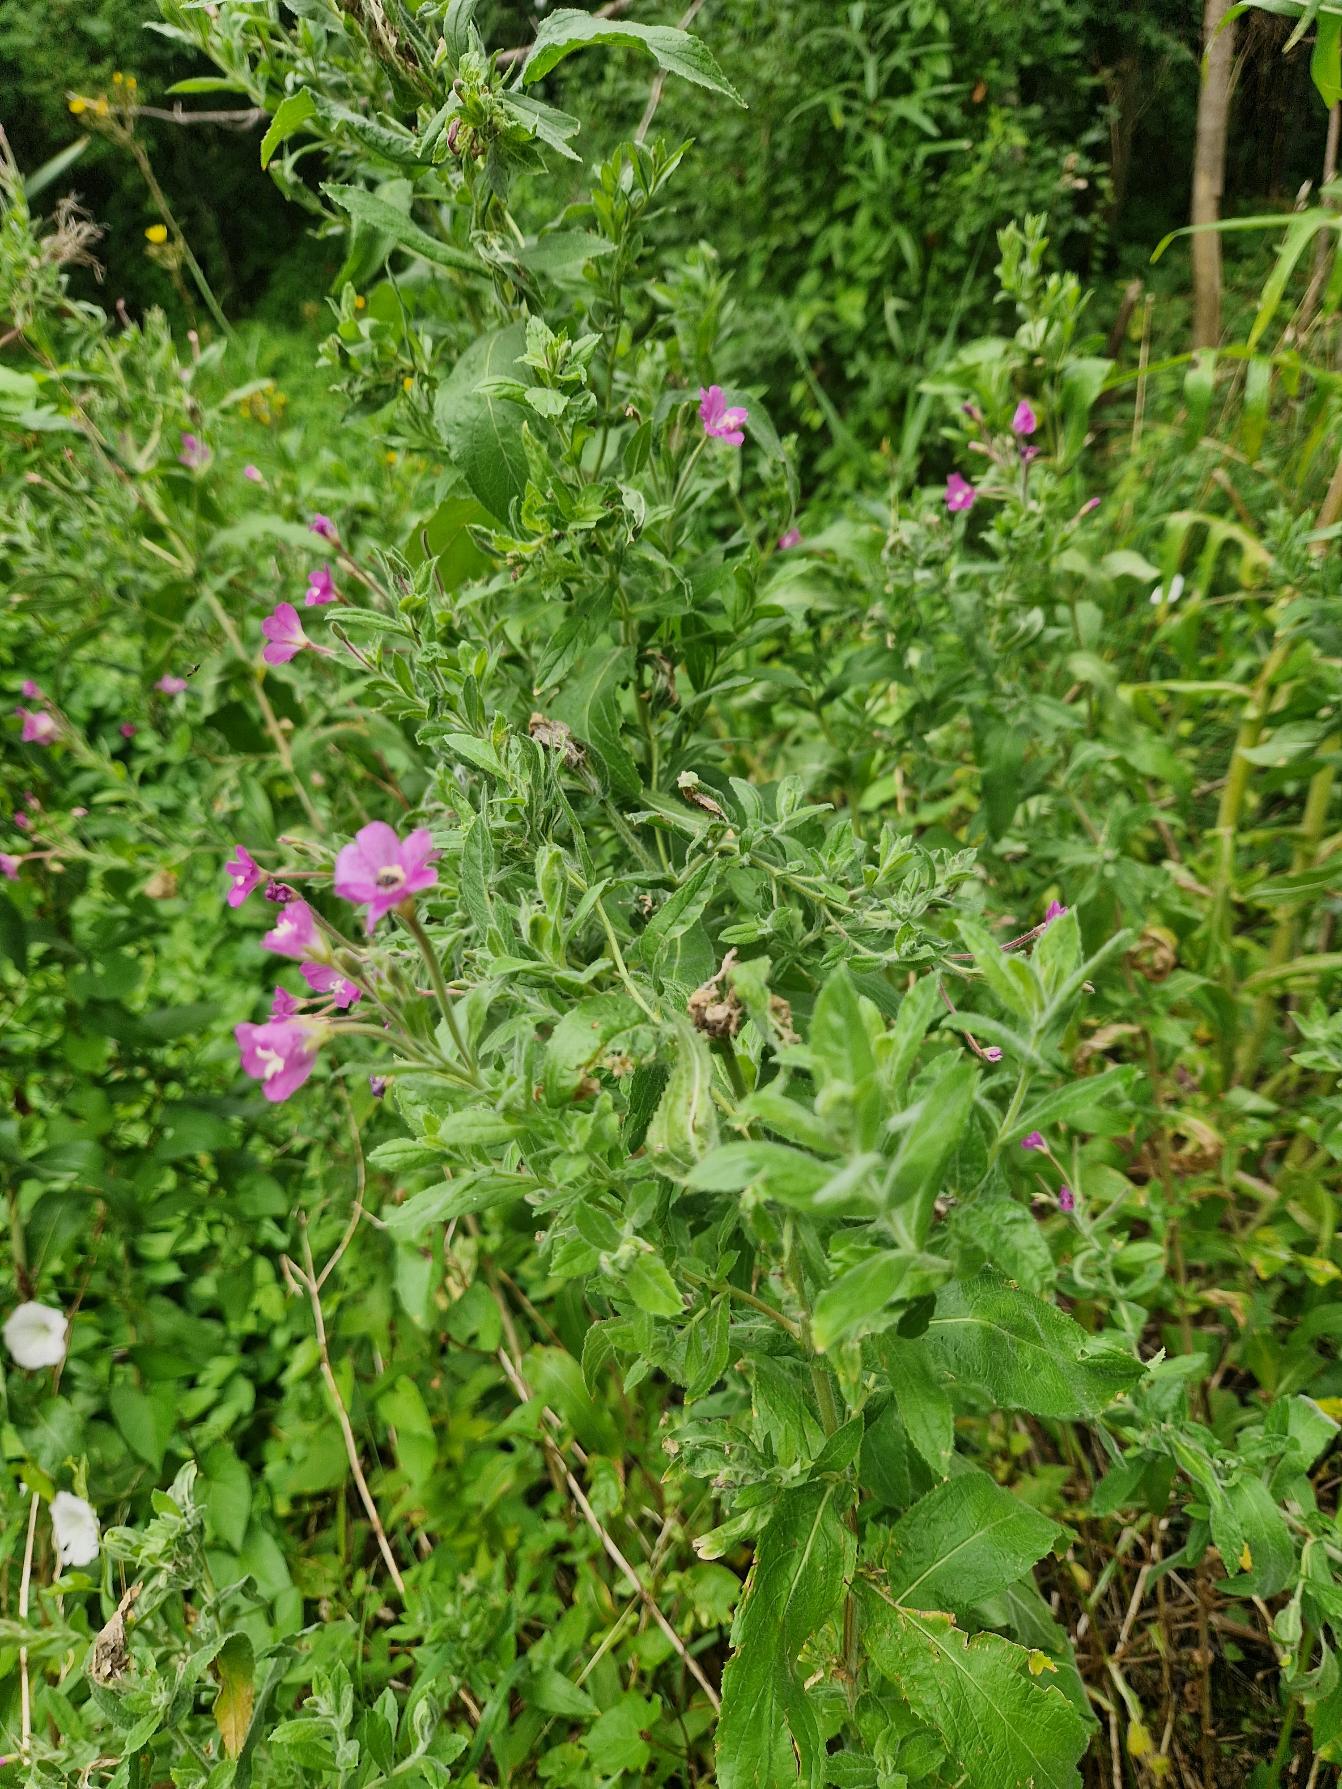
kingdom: Plantae
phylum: Tracheophyta
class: Magnoliopsida
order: Myrtales
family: Onagraceae
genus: Epilobium
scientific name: Epilobium hirsutum
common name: Lådden dueurt
